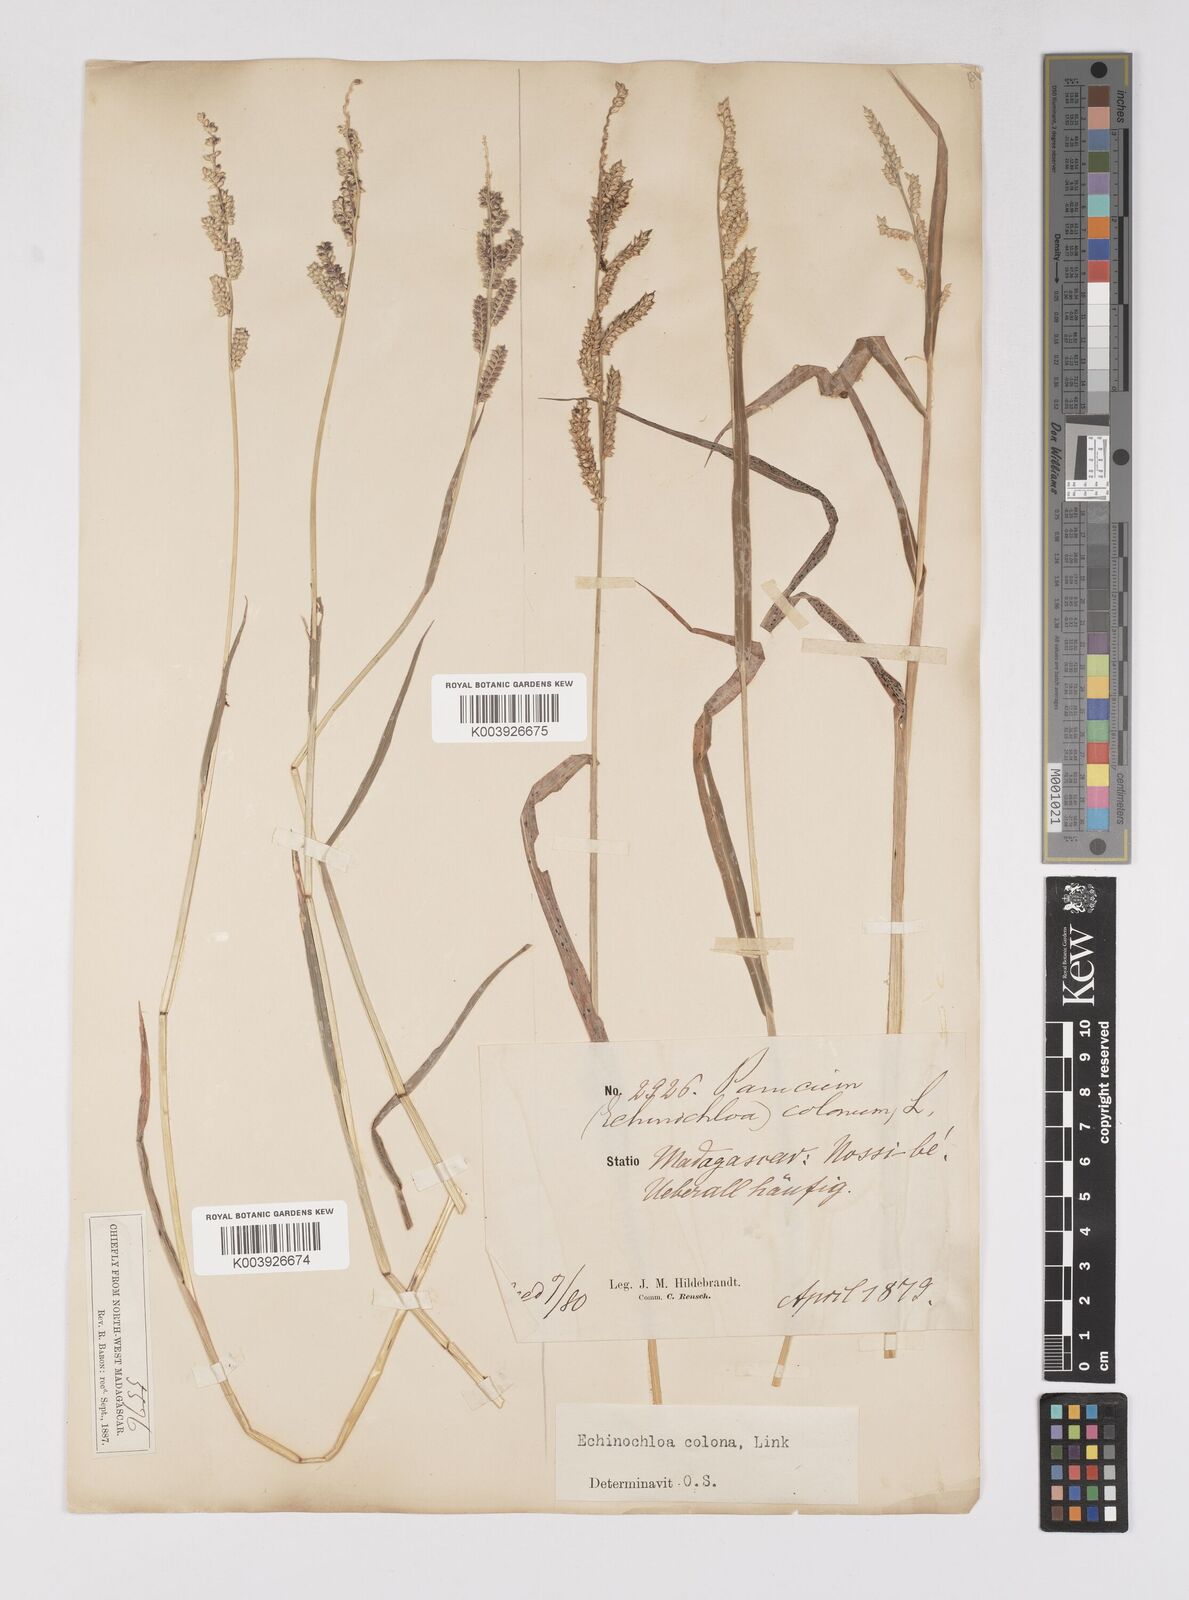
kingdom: Plantae
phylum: Tracheophyta
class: Liliopsida
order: Poales
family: Poaceae
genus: Echinochloa
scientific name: Echinochloa colonum
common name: Jungle rice
